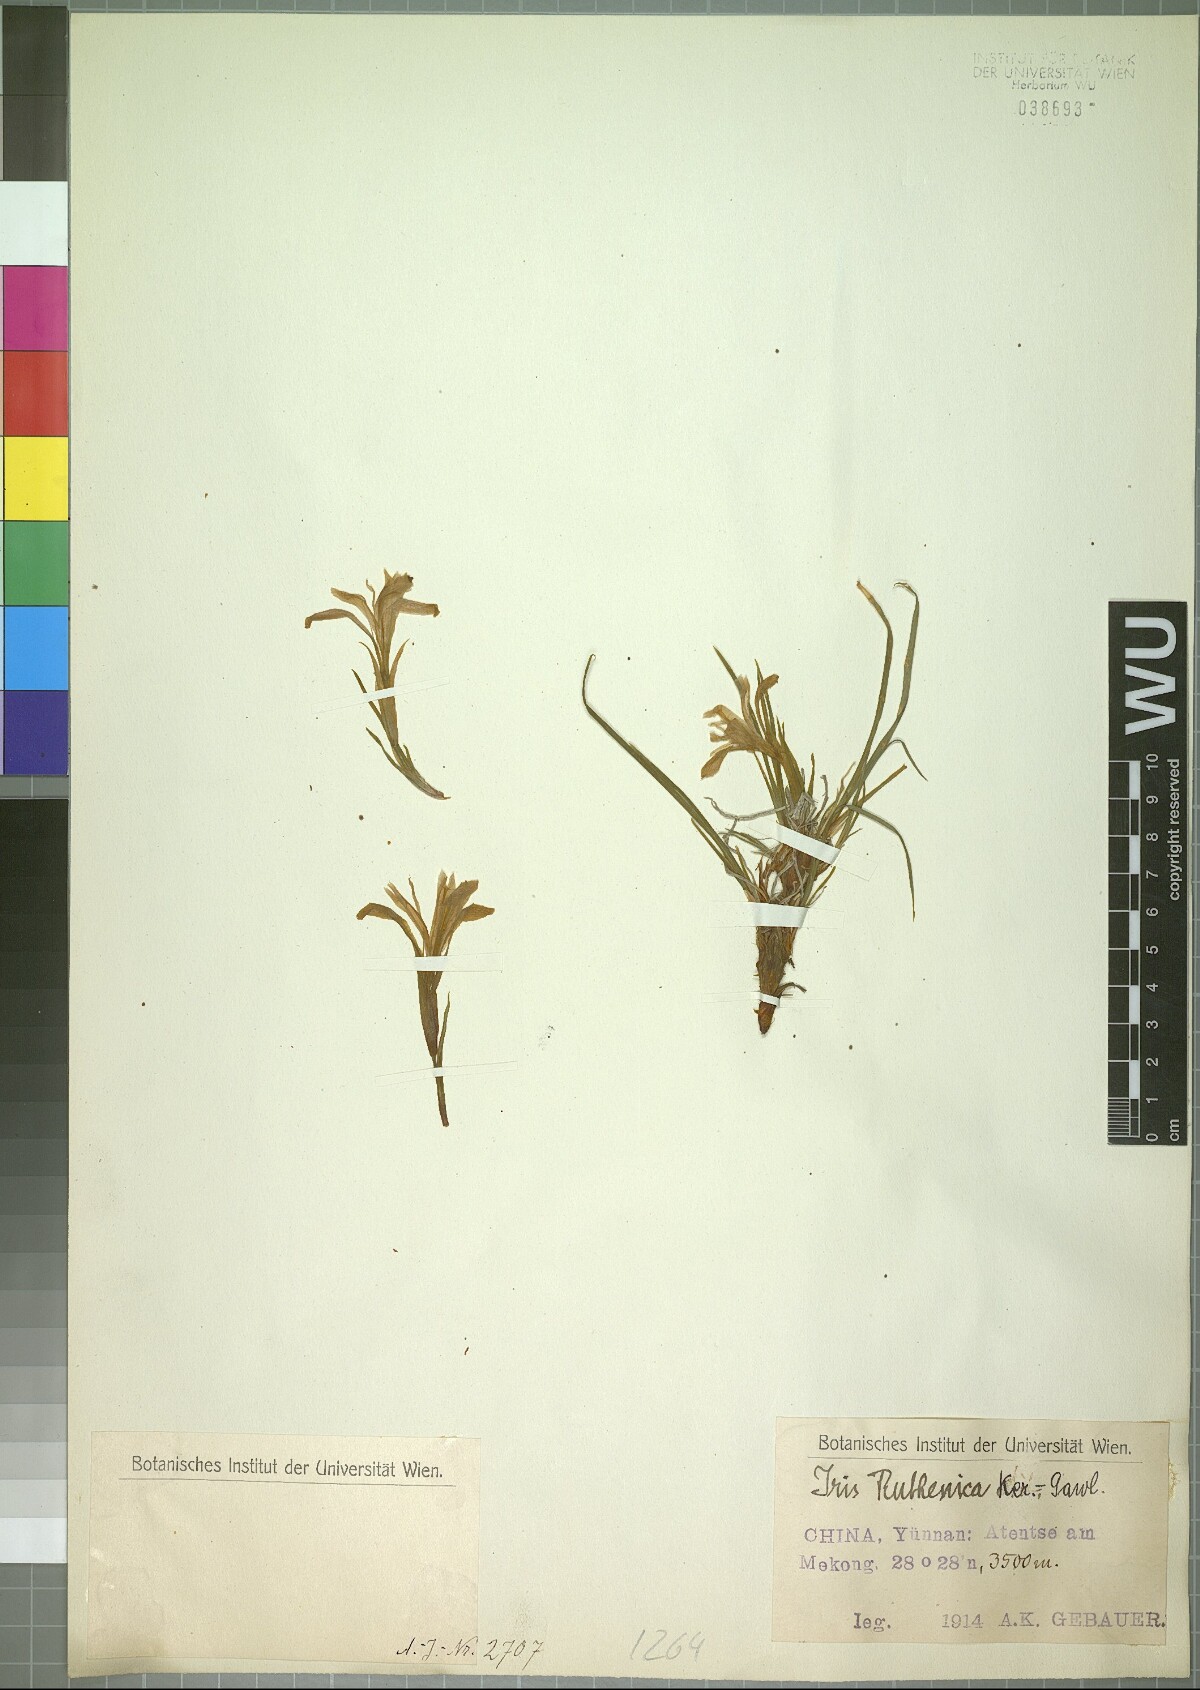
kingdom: Plantae
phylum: Tracheophyta
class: Liliopsida
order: Asparagales
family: Iridaceae
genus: Iris
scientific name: Iris ruthenica
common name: Purple-bract iris
